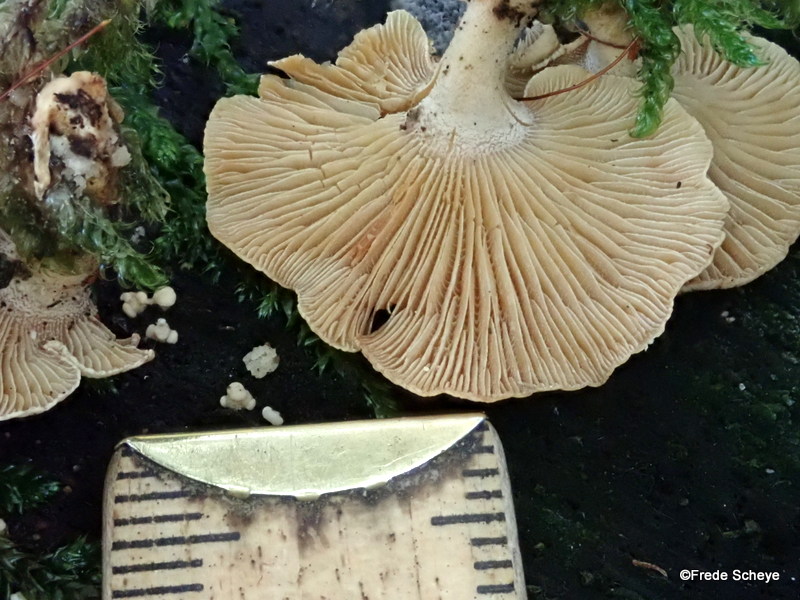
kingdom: Fungi
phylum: Basidiomycota
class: Agaricomycetes
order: Agaricales
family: Mycenaceae
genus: Panellus
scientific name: Panellus stipticus
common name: kliddet epaulethat
